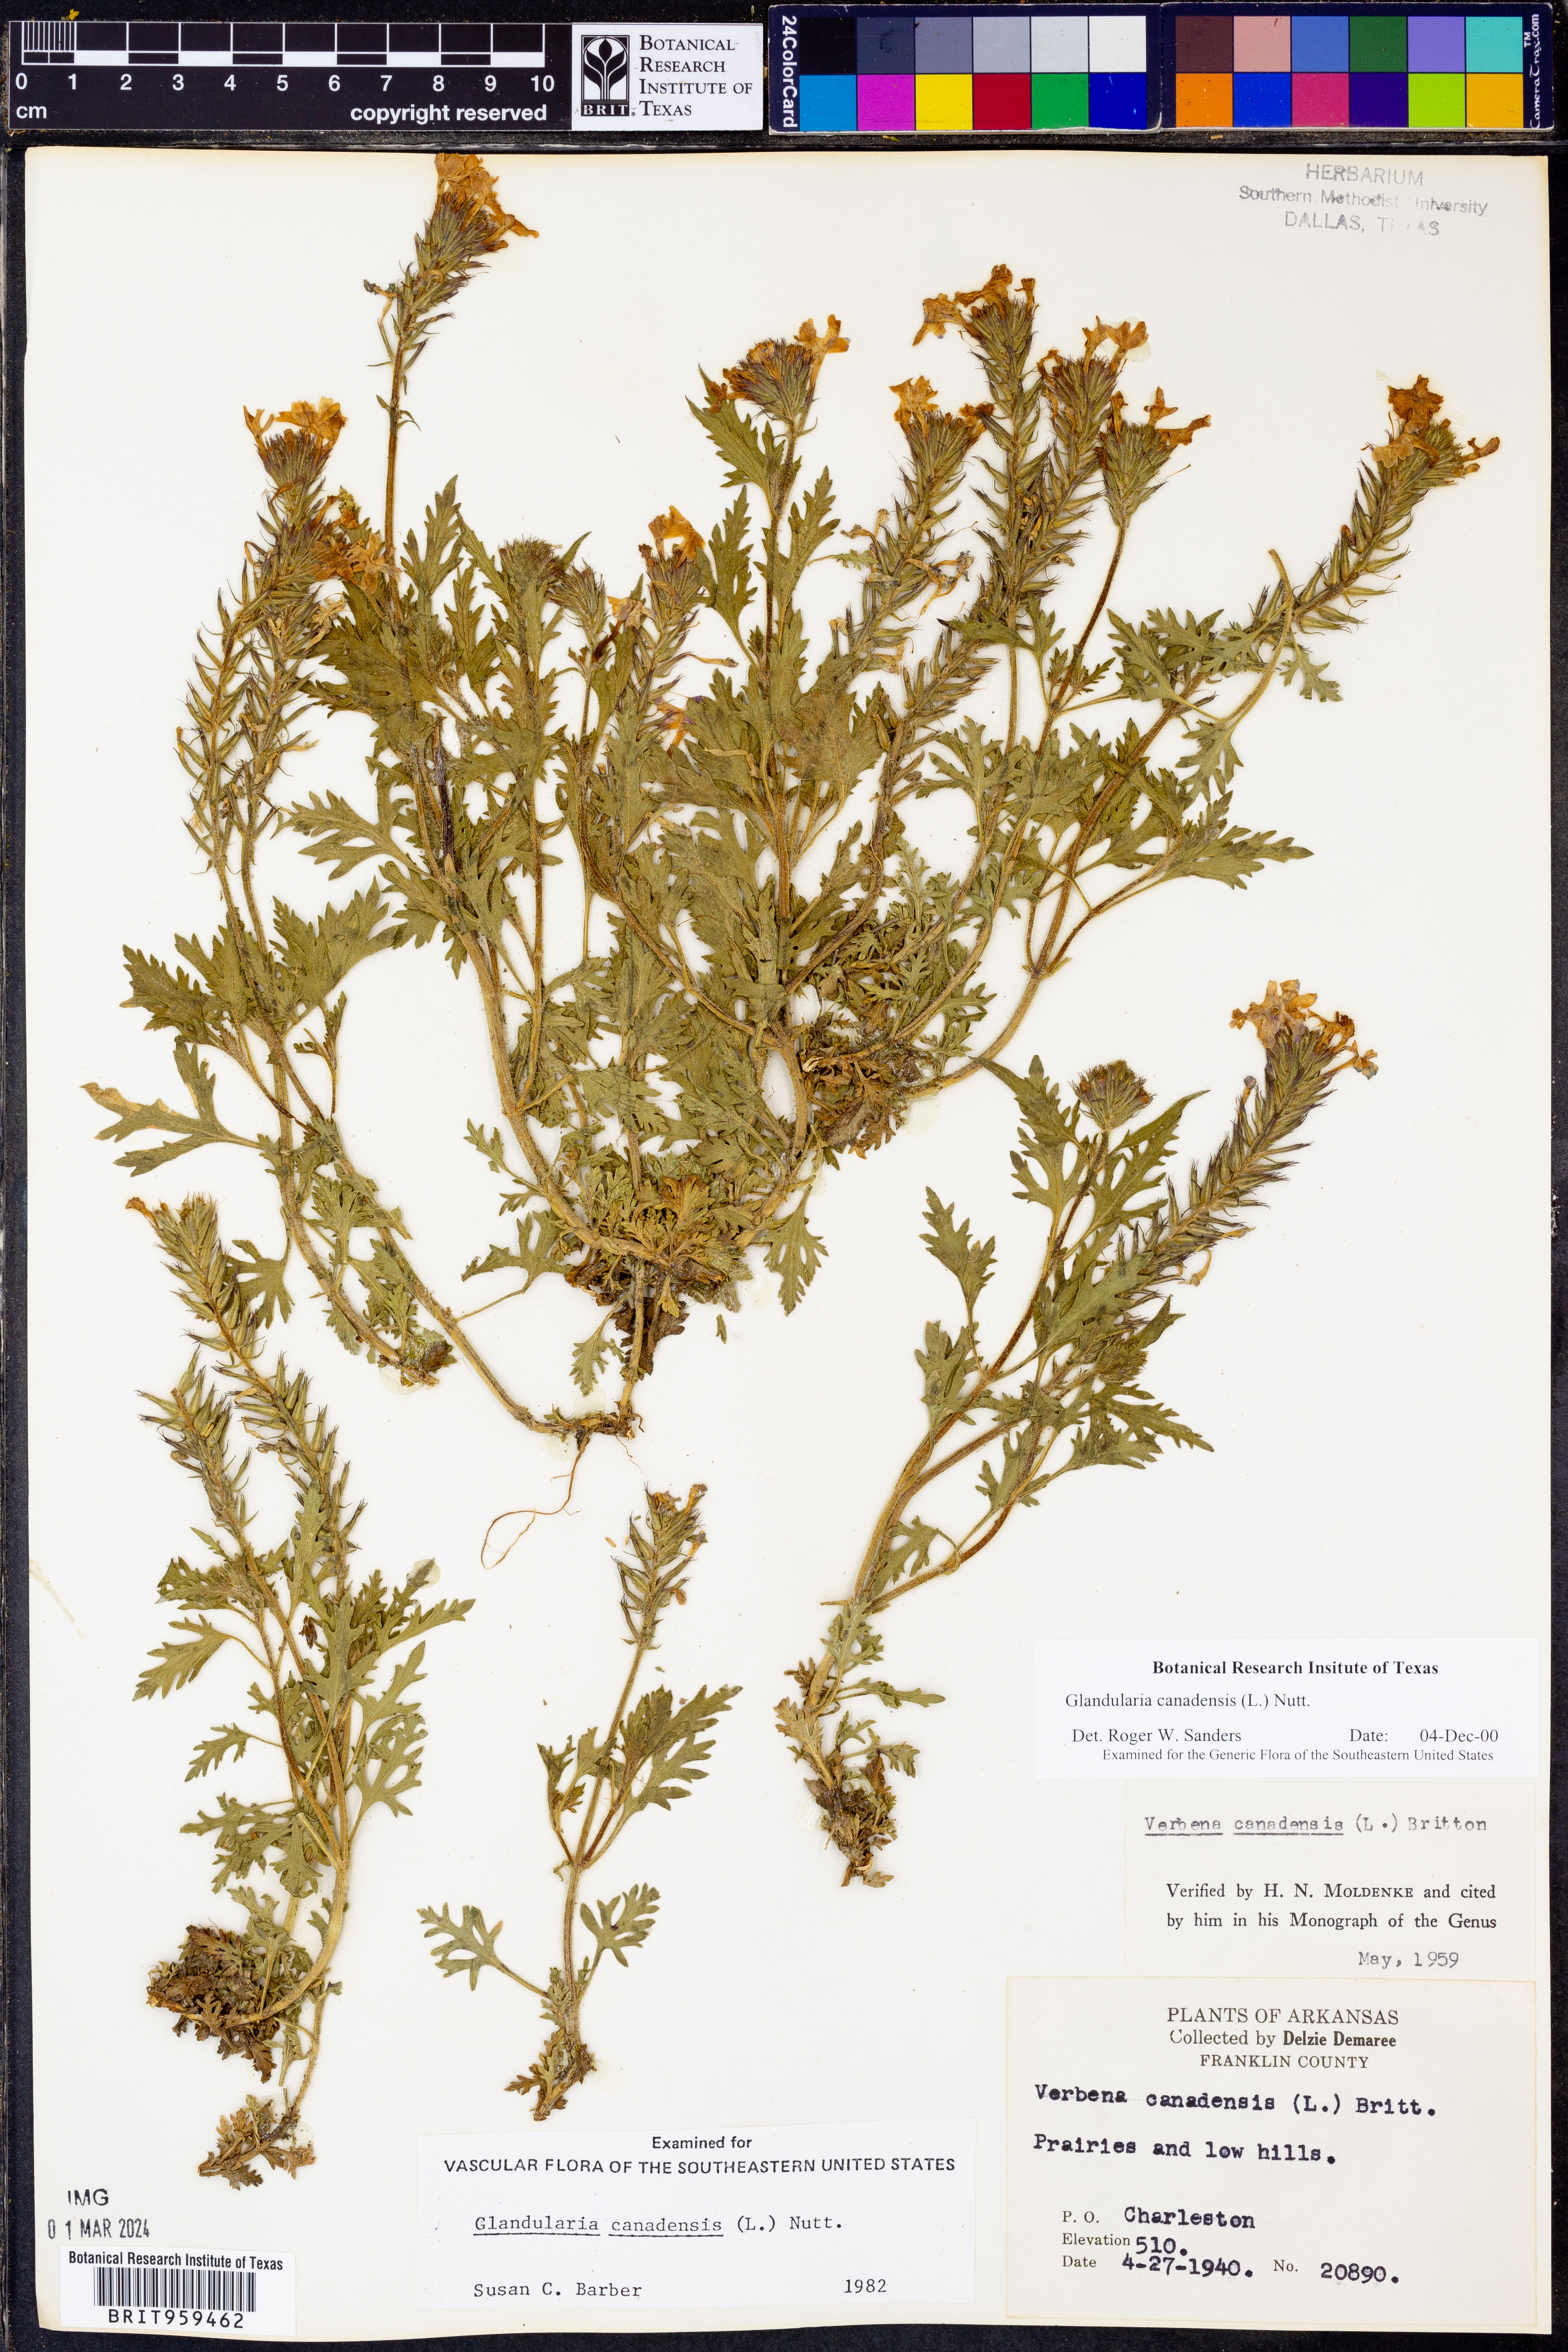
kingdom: Plantae
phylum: Tracheophyta
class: Magnoliopsida
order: Lamiales
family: Verbenaceae
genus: Verbena
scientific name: Verbena canadensis
